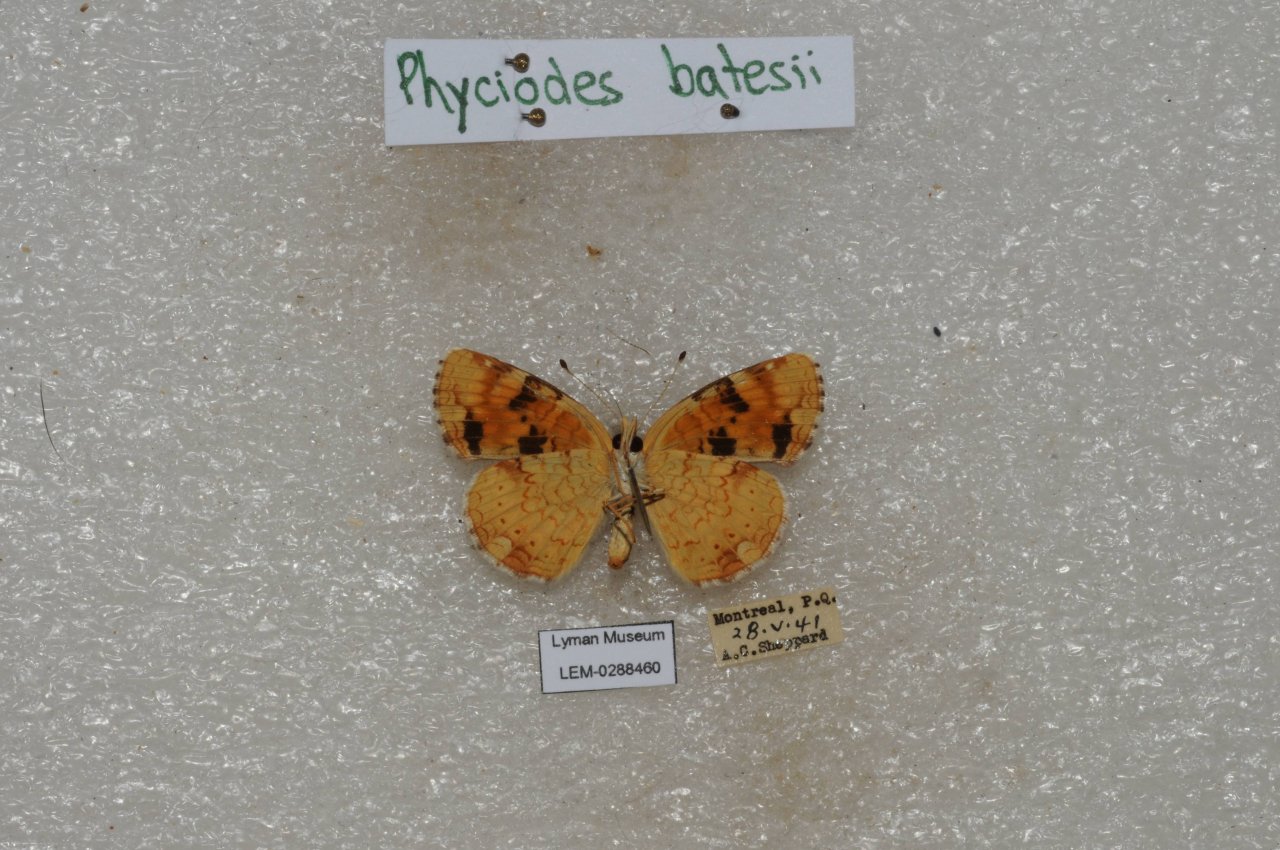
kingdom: Animalia
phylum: Arthropoda
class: Insecta
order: Lepidoptera
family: Nymphalidae
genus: Phyciodes
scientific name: Phyciodes batesii
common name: Tawny Crescent
